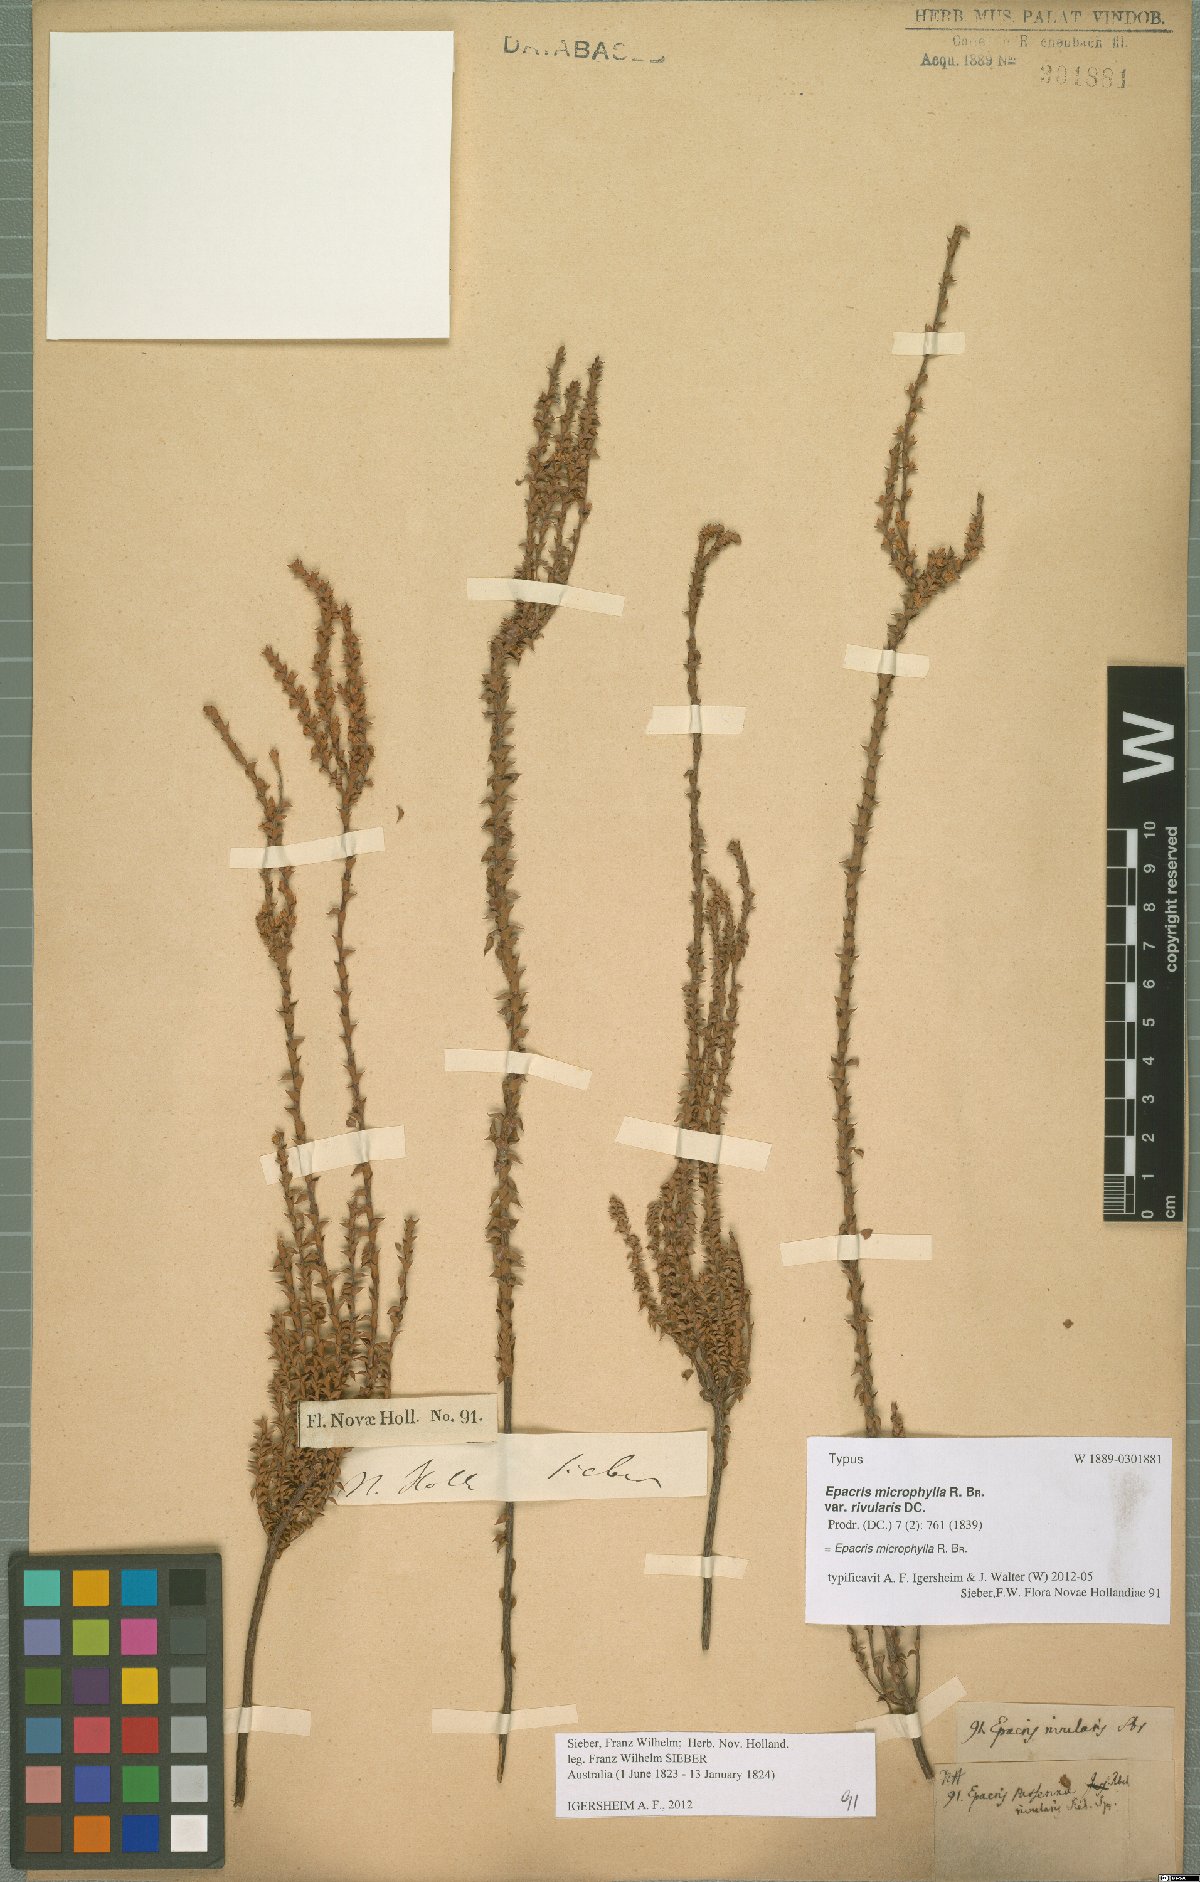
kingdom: Plantae
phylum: Tracheophyta
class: Magnoliopsida
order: Ericales
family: Ericaceae
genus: Epacris
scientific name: Epacris microphylla
